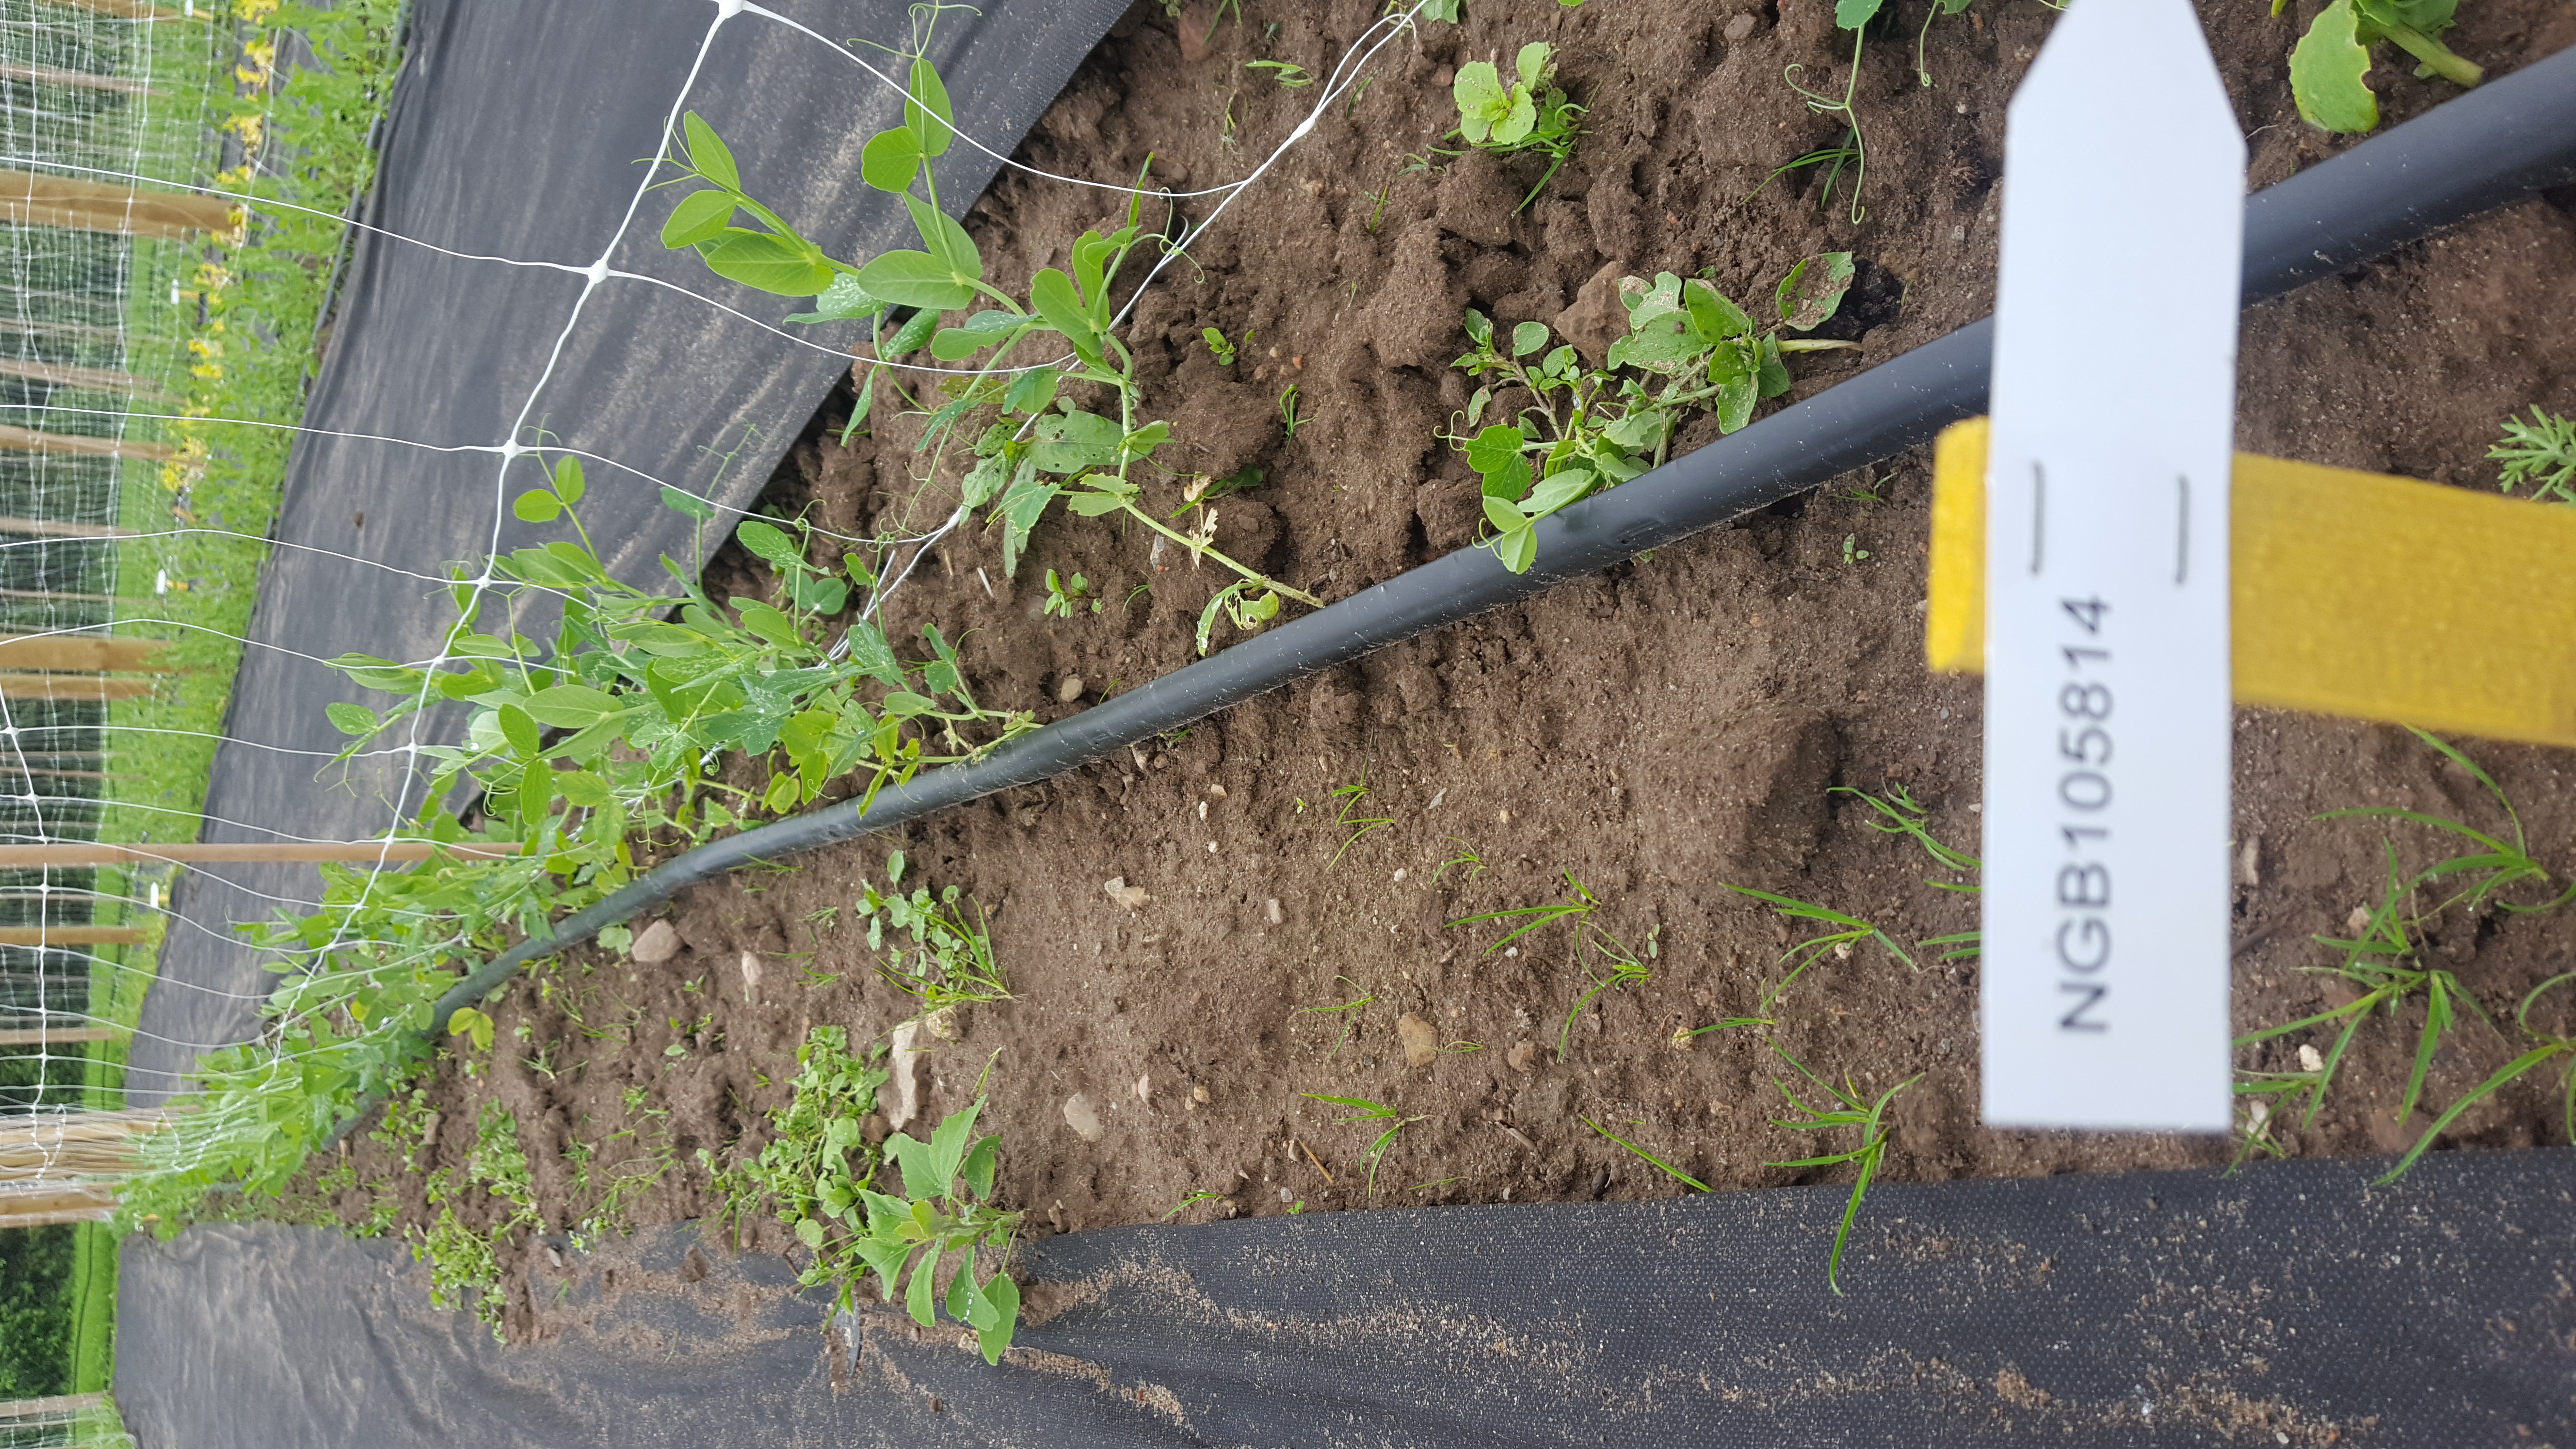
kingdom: Plantae
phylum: Tracheophyta
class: Magnoliopsida
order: Fabales
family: Fabaceae
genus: Lathyrus
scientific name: Lathyrus oleraceus
